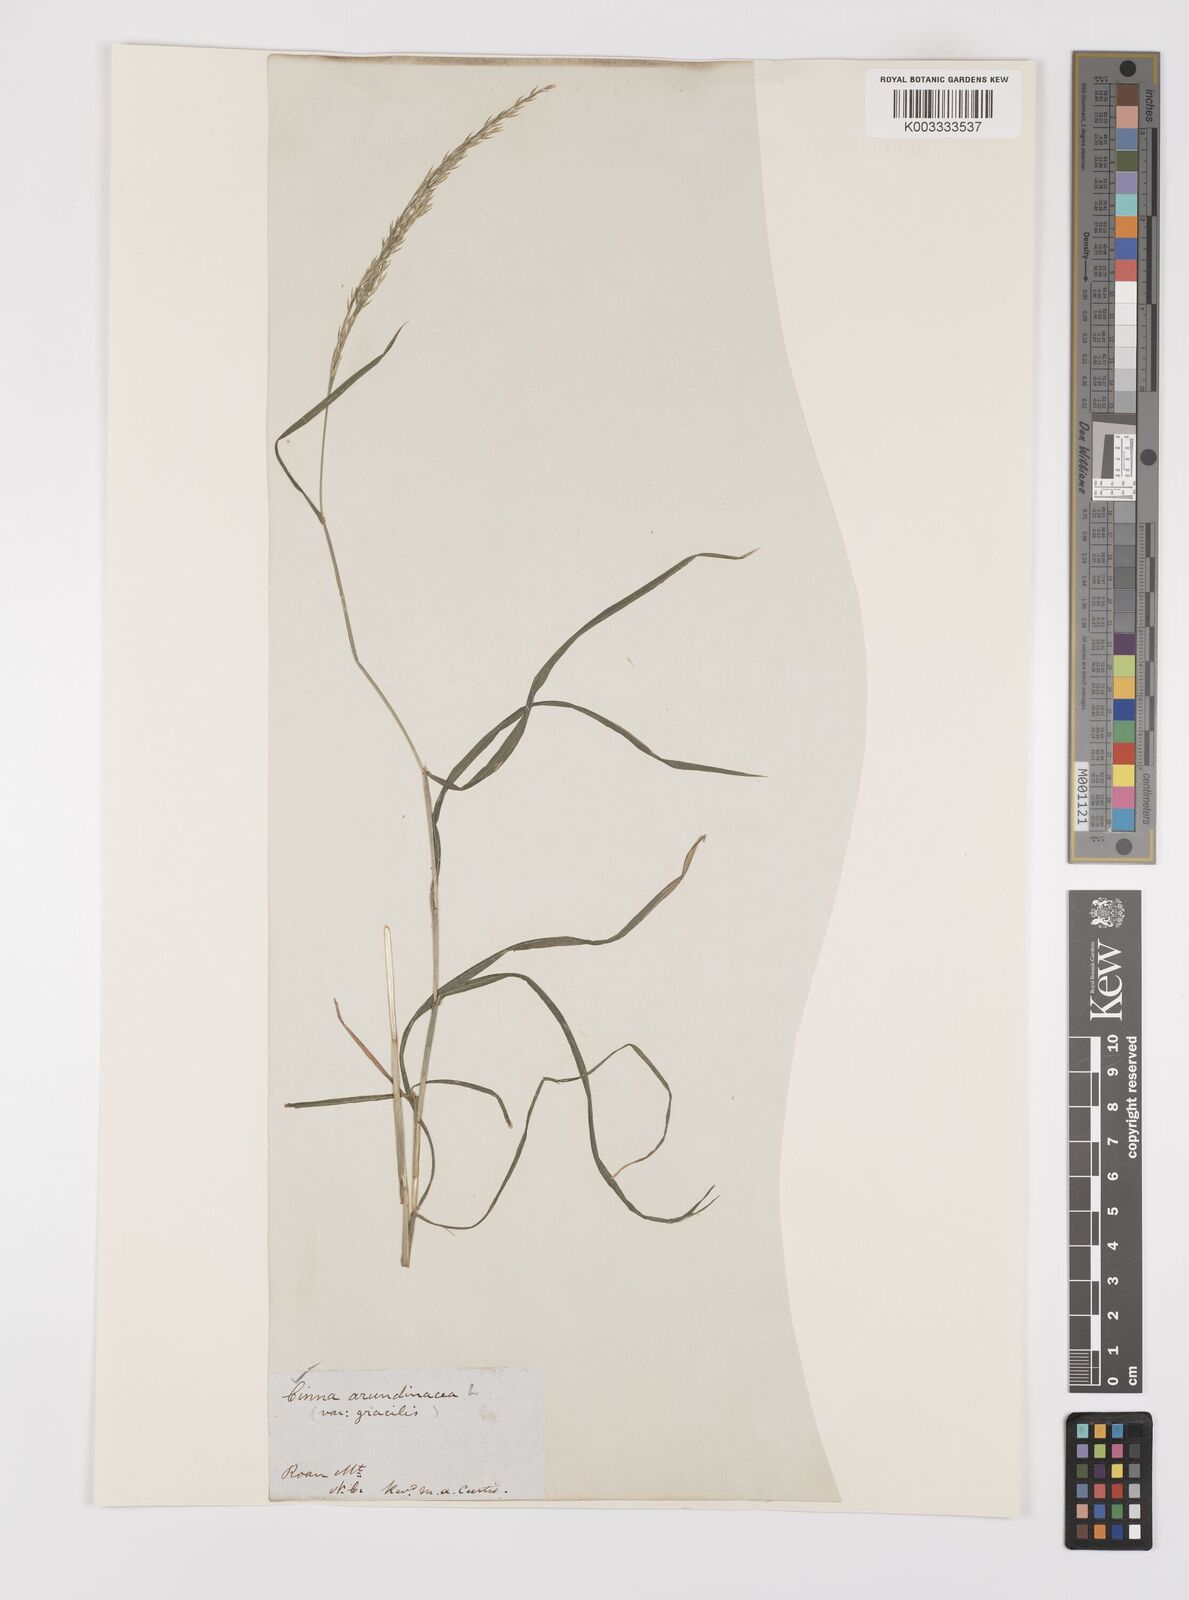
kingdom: Plantae
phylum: Tracheophyta
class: Liliopsida
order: Poales
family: Poaceae
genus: Cinna
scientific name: Cinna
